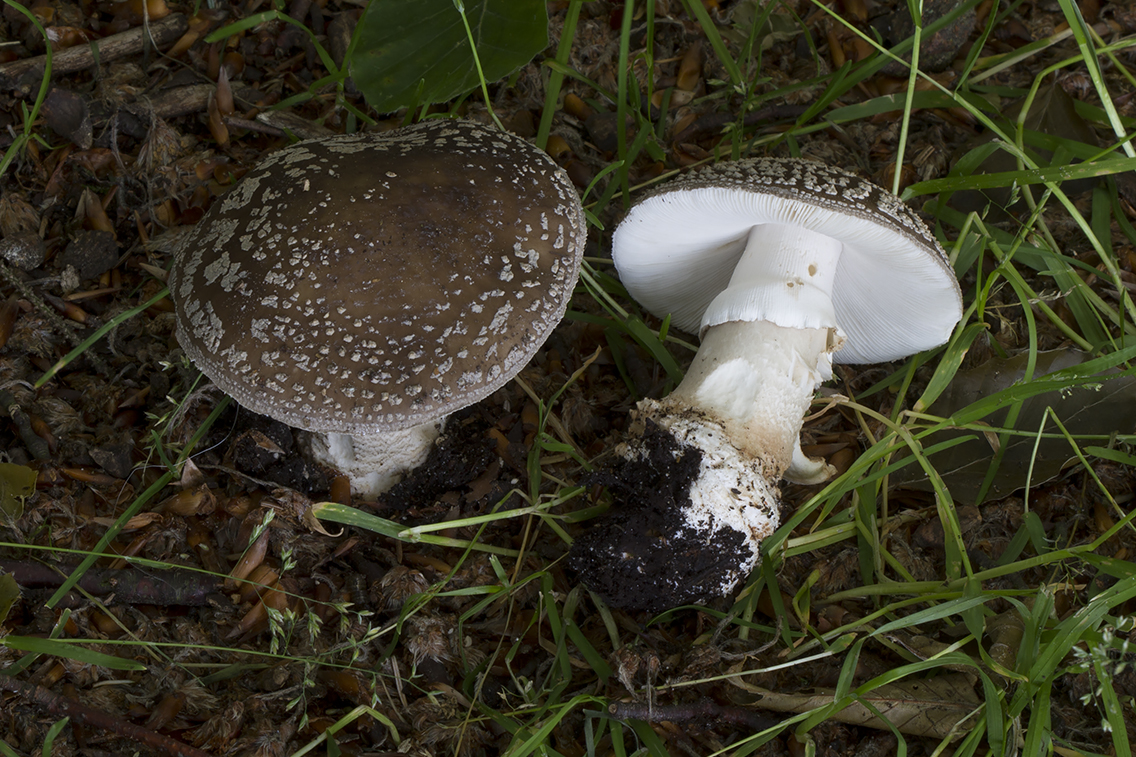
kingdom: Fungi
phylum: Basidiomycota
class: Agaricomycetes
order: Agaricales
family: Amanitaceae
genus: Amanita
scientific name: Amanita
